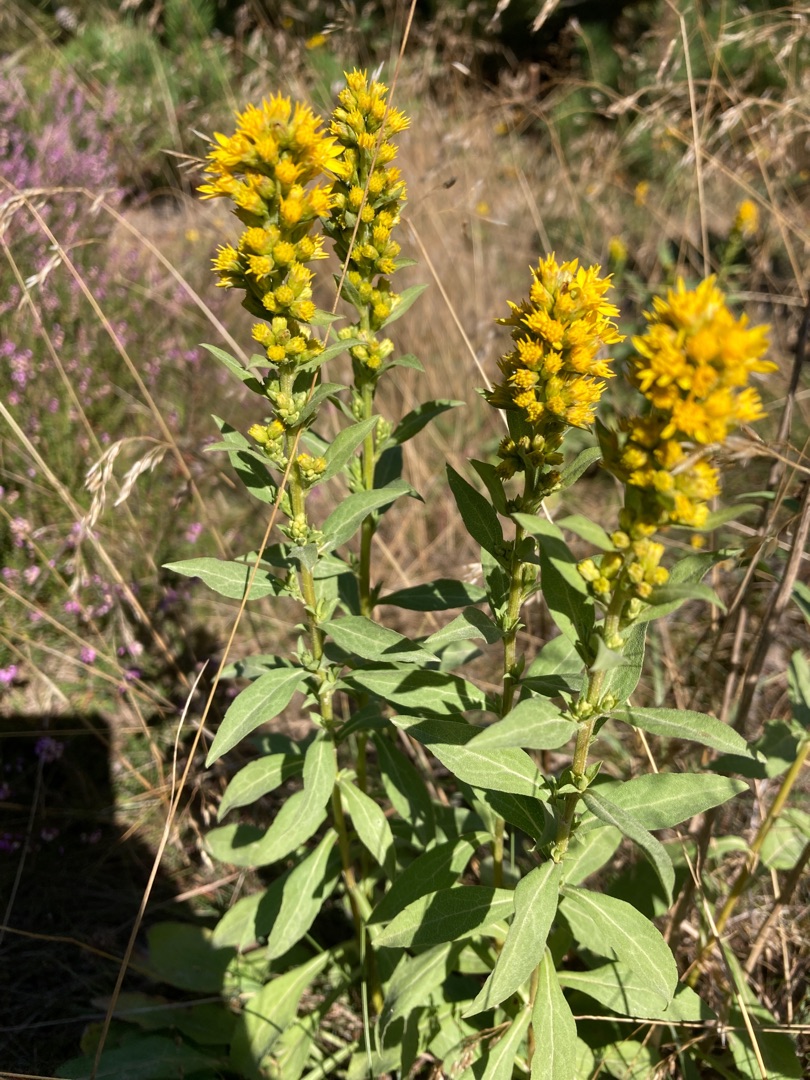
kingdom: Plantae
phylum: Tracheophyta
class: Magnoliopsida
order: Asterales
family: Asteraceae
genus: Solidago
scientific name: Solidago virgaurea
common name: Almindelig gyldenris
